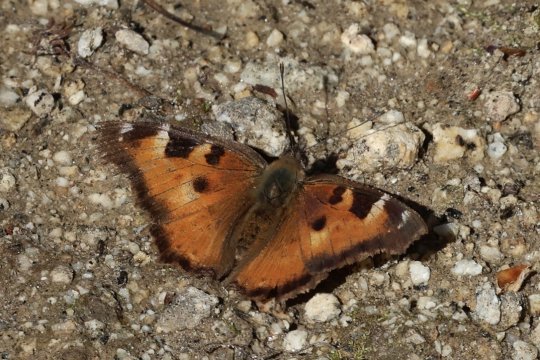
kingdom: Animalia
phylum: Arthropoda
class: Insecta
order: Lepidoptera
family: Nymphalidae
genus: Nymphalis
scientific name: Nymphalis californica
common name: California Tortoiseshell
